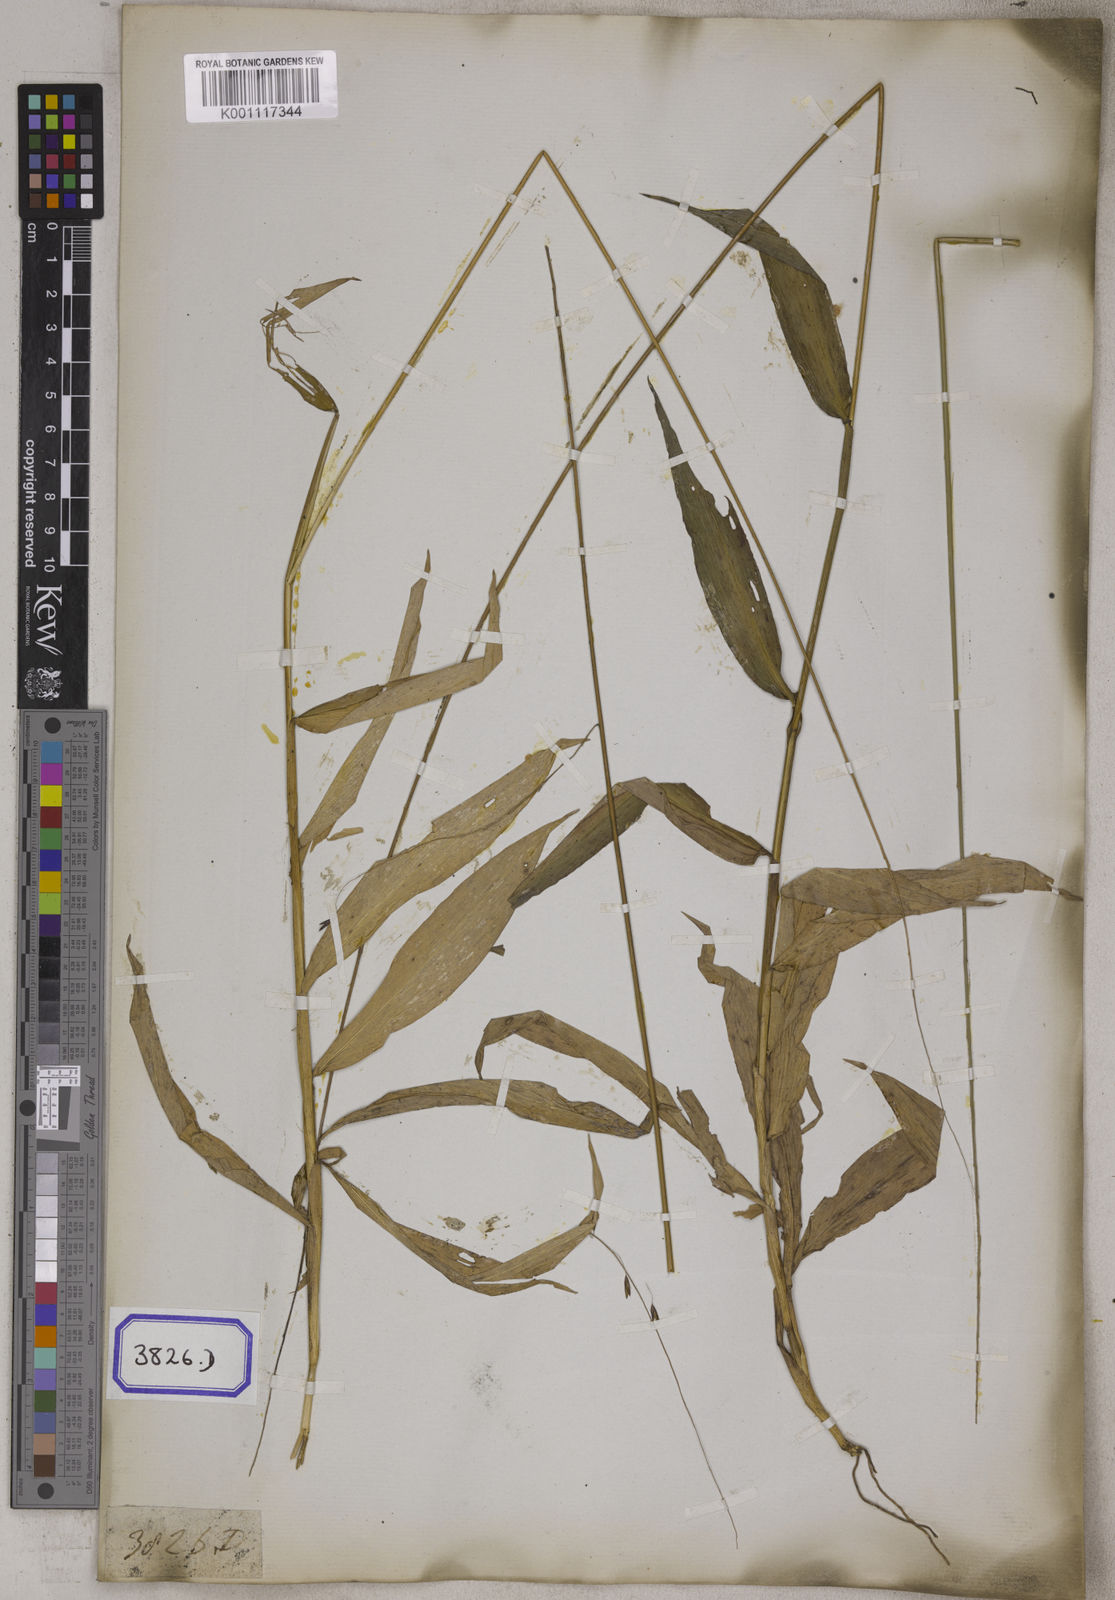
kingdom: Plantae
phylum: Tracheophyta
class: Liliopsida
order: Poales
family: Poaceae
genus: Centotheca
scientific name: Centotheca lappacea
